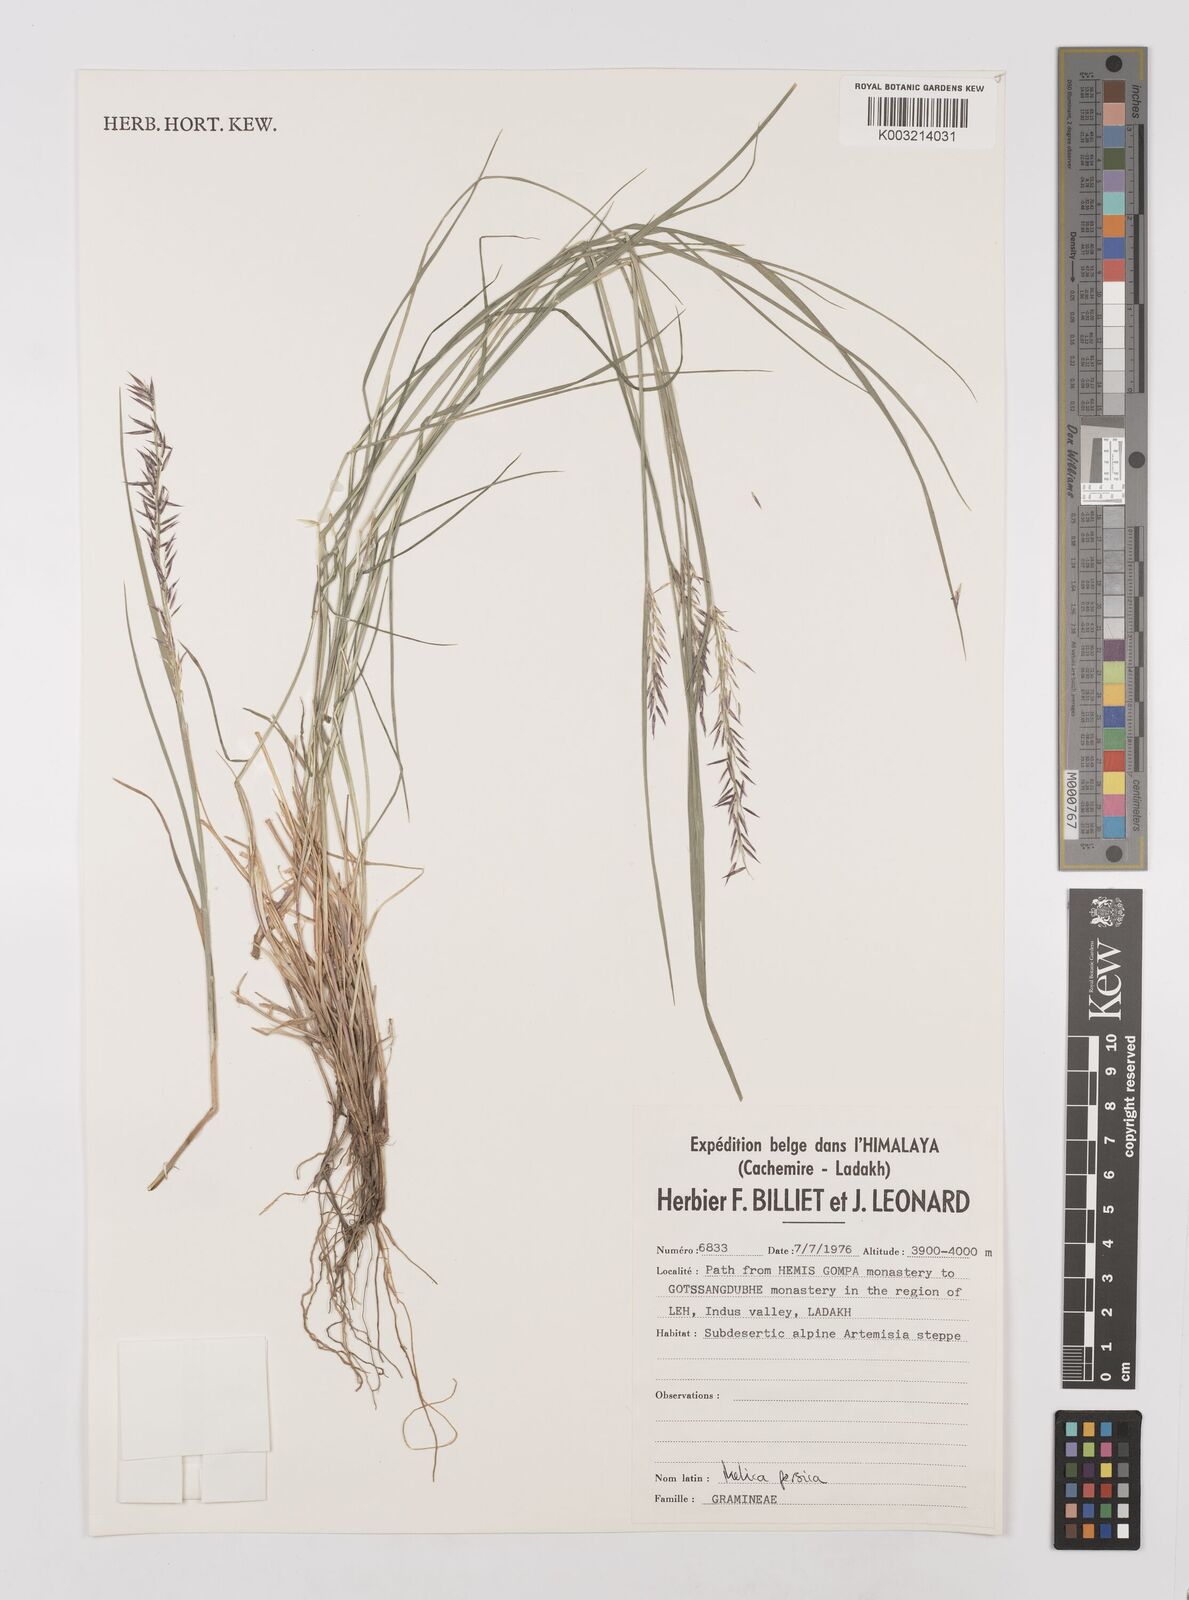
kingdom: Plantae
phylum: Tracheophyta
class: Liliopsida
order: Poales
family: Poaceae
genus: Melica
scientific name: Melica persica
